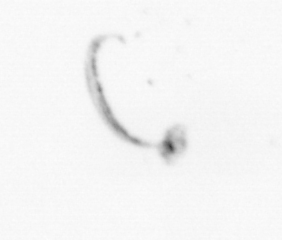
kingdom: Animalia
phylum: Chordata
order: Copelata
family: Fritillariidae
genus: Appendicularia
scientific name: Appendicularia
